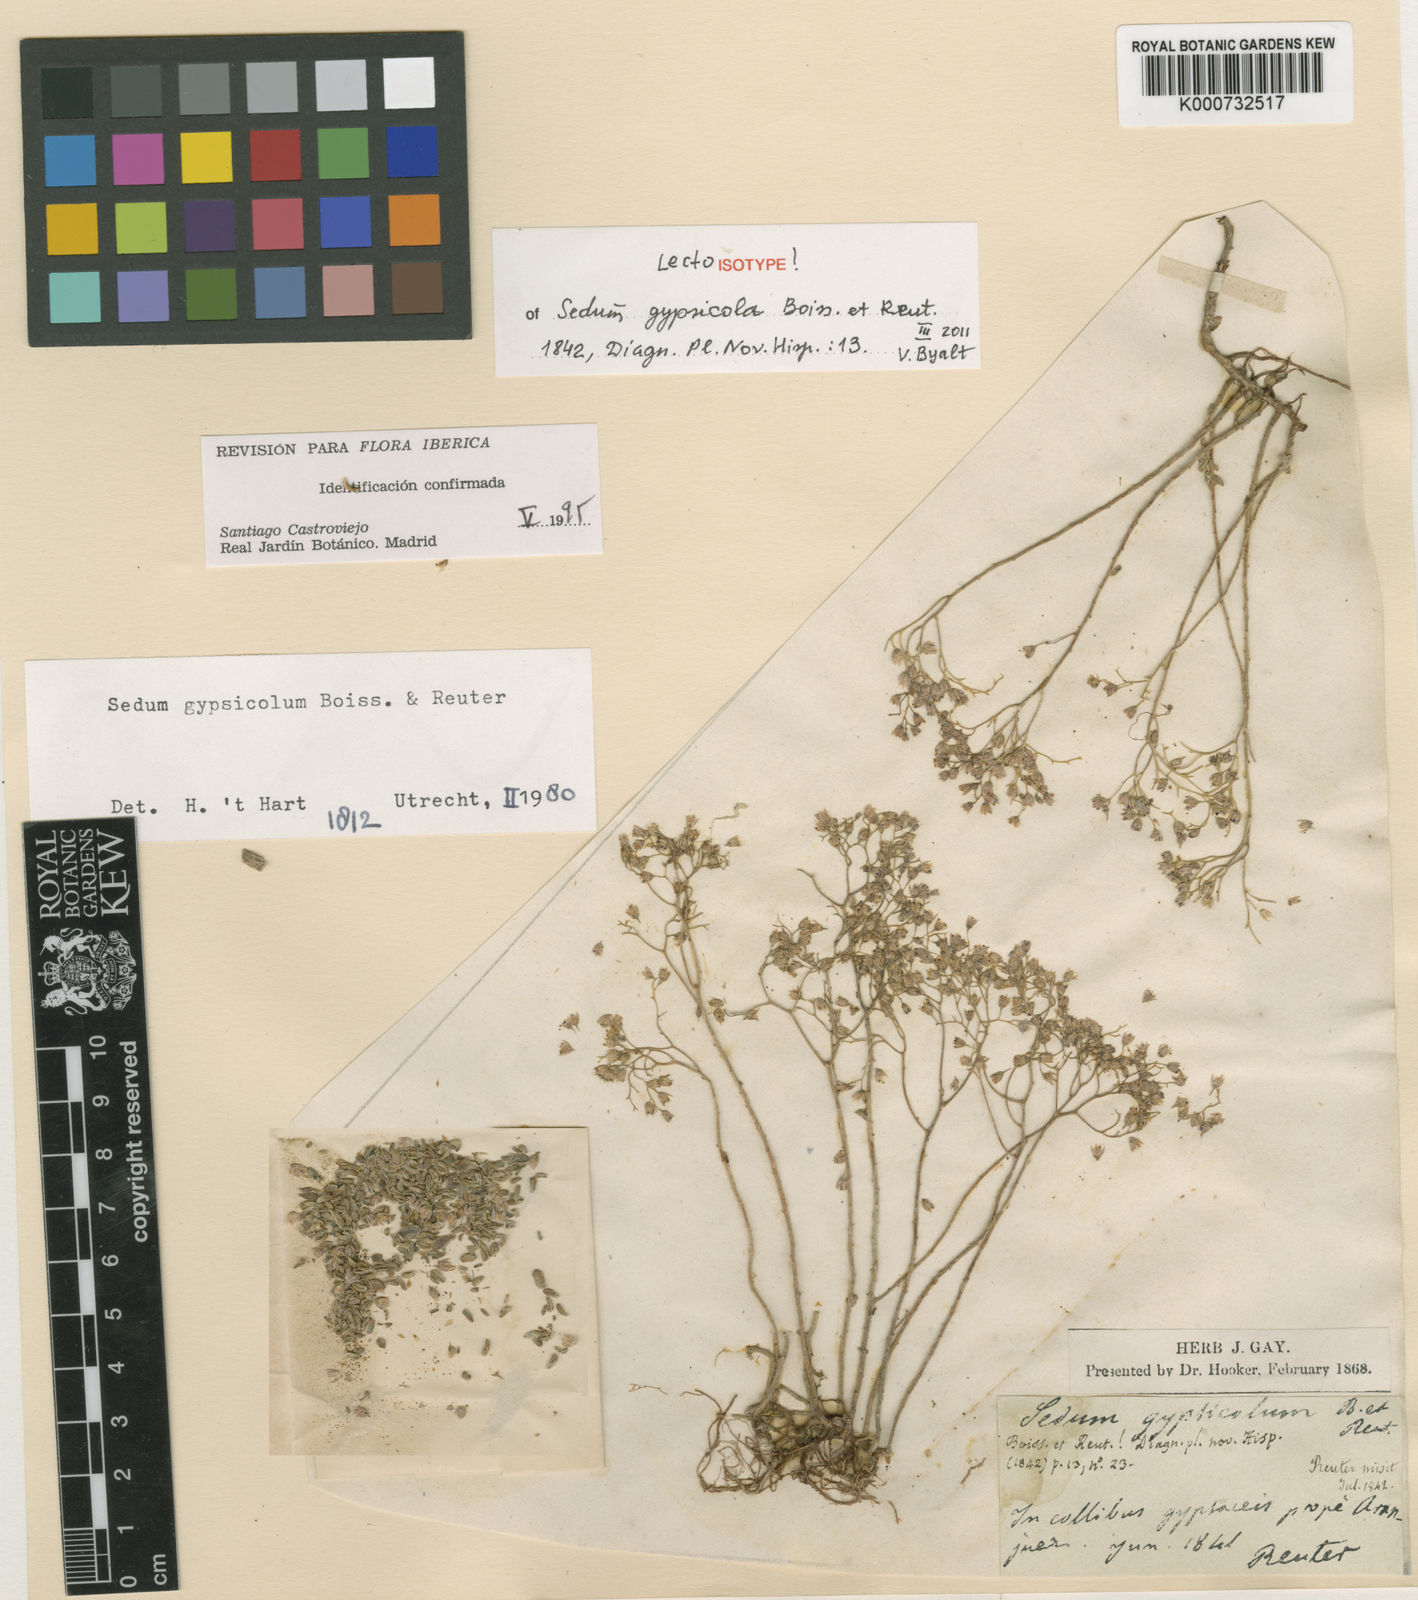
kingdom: Plantae
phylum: Tracheophyta
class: Magnoliopsida
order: Saxifragales
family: Crassulaceae
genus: Sedum
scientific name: Sedum gypsicola
